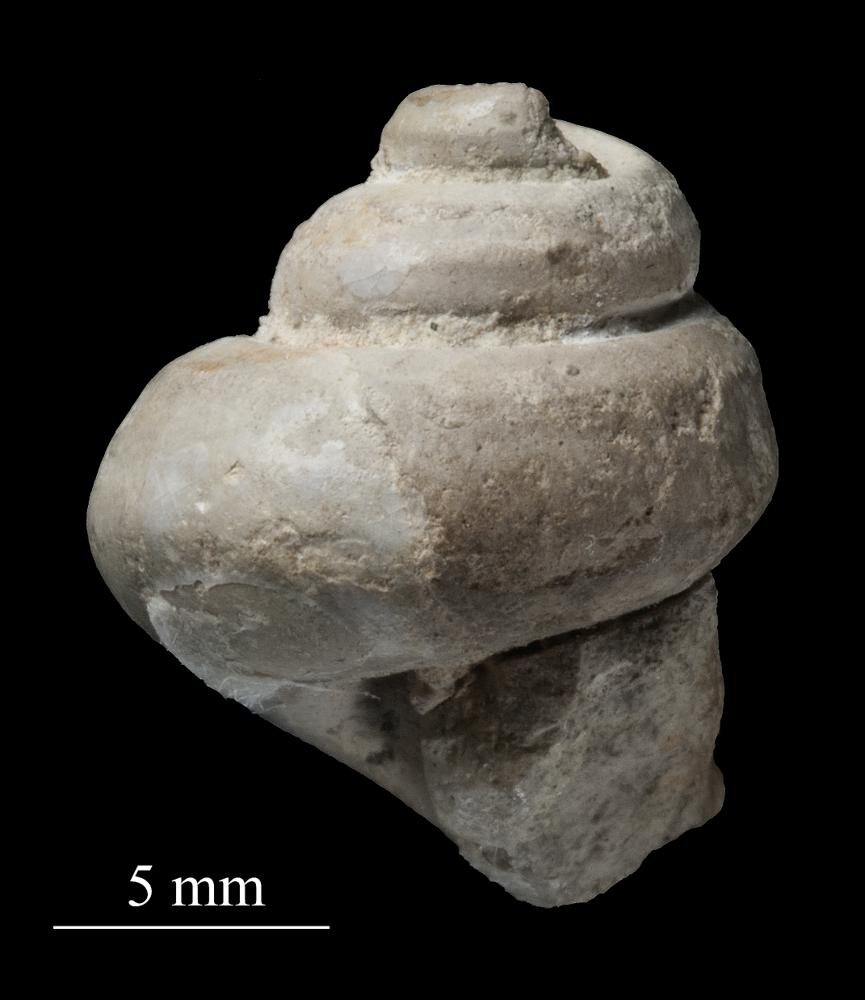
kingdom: Animalia
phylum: Mollusca
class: Gastropoda
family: Lophospiridae
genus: Proturritella
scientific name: Proturritella Turbinites bicarinatus
